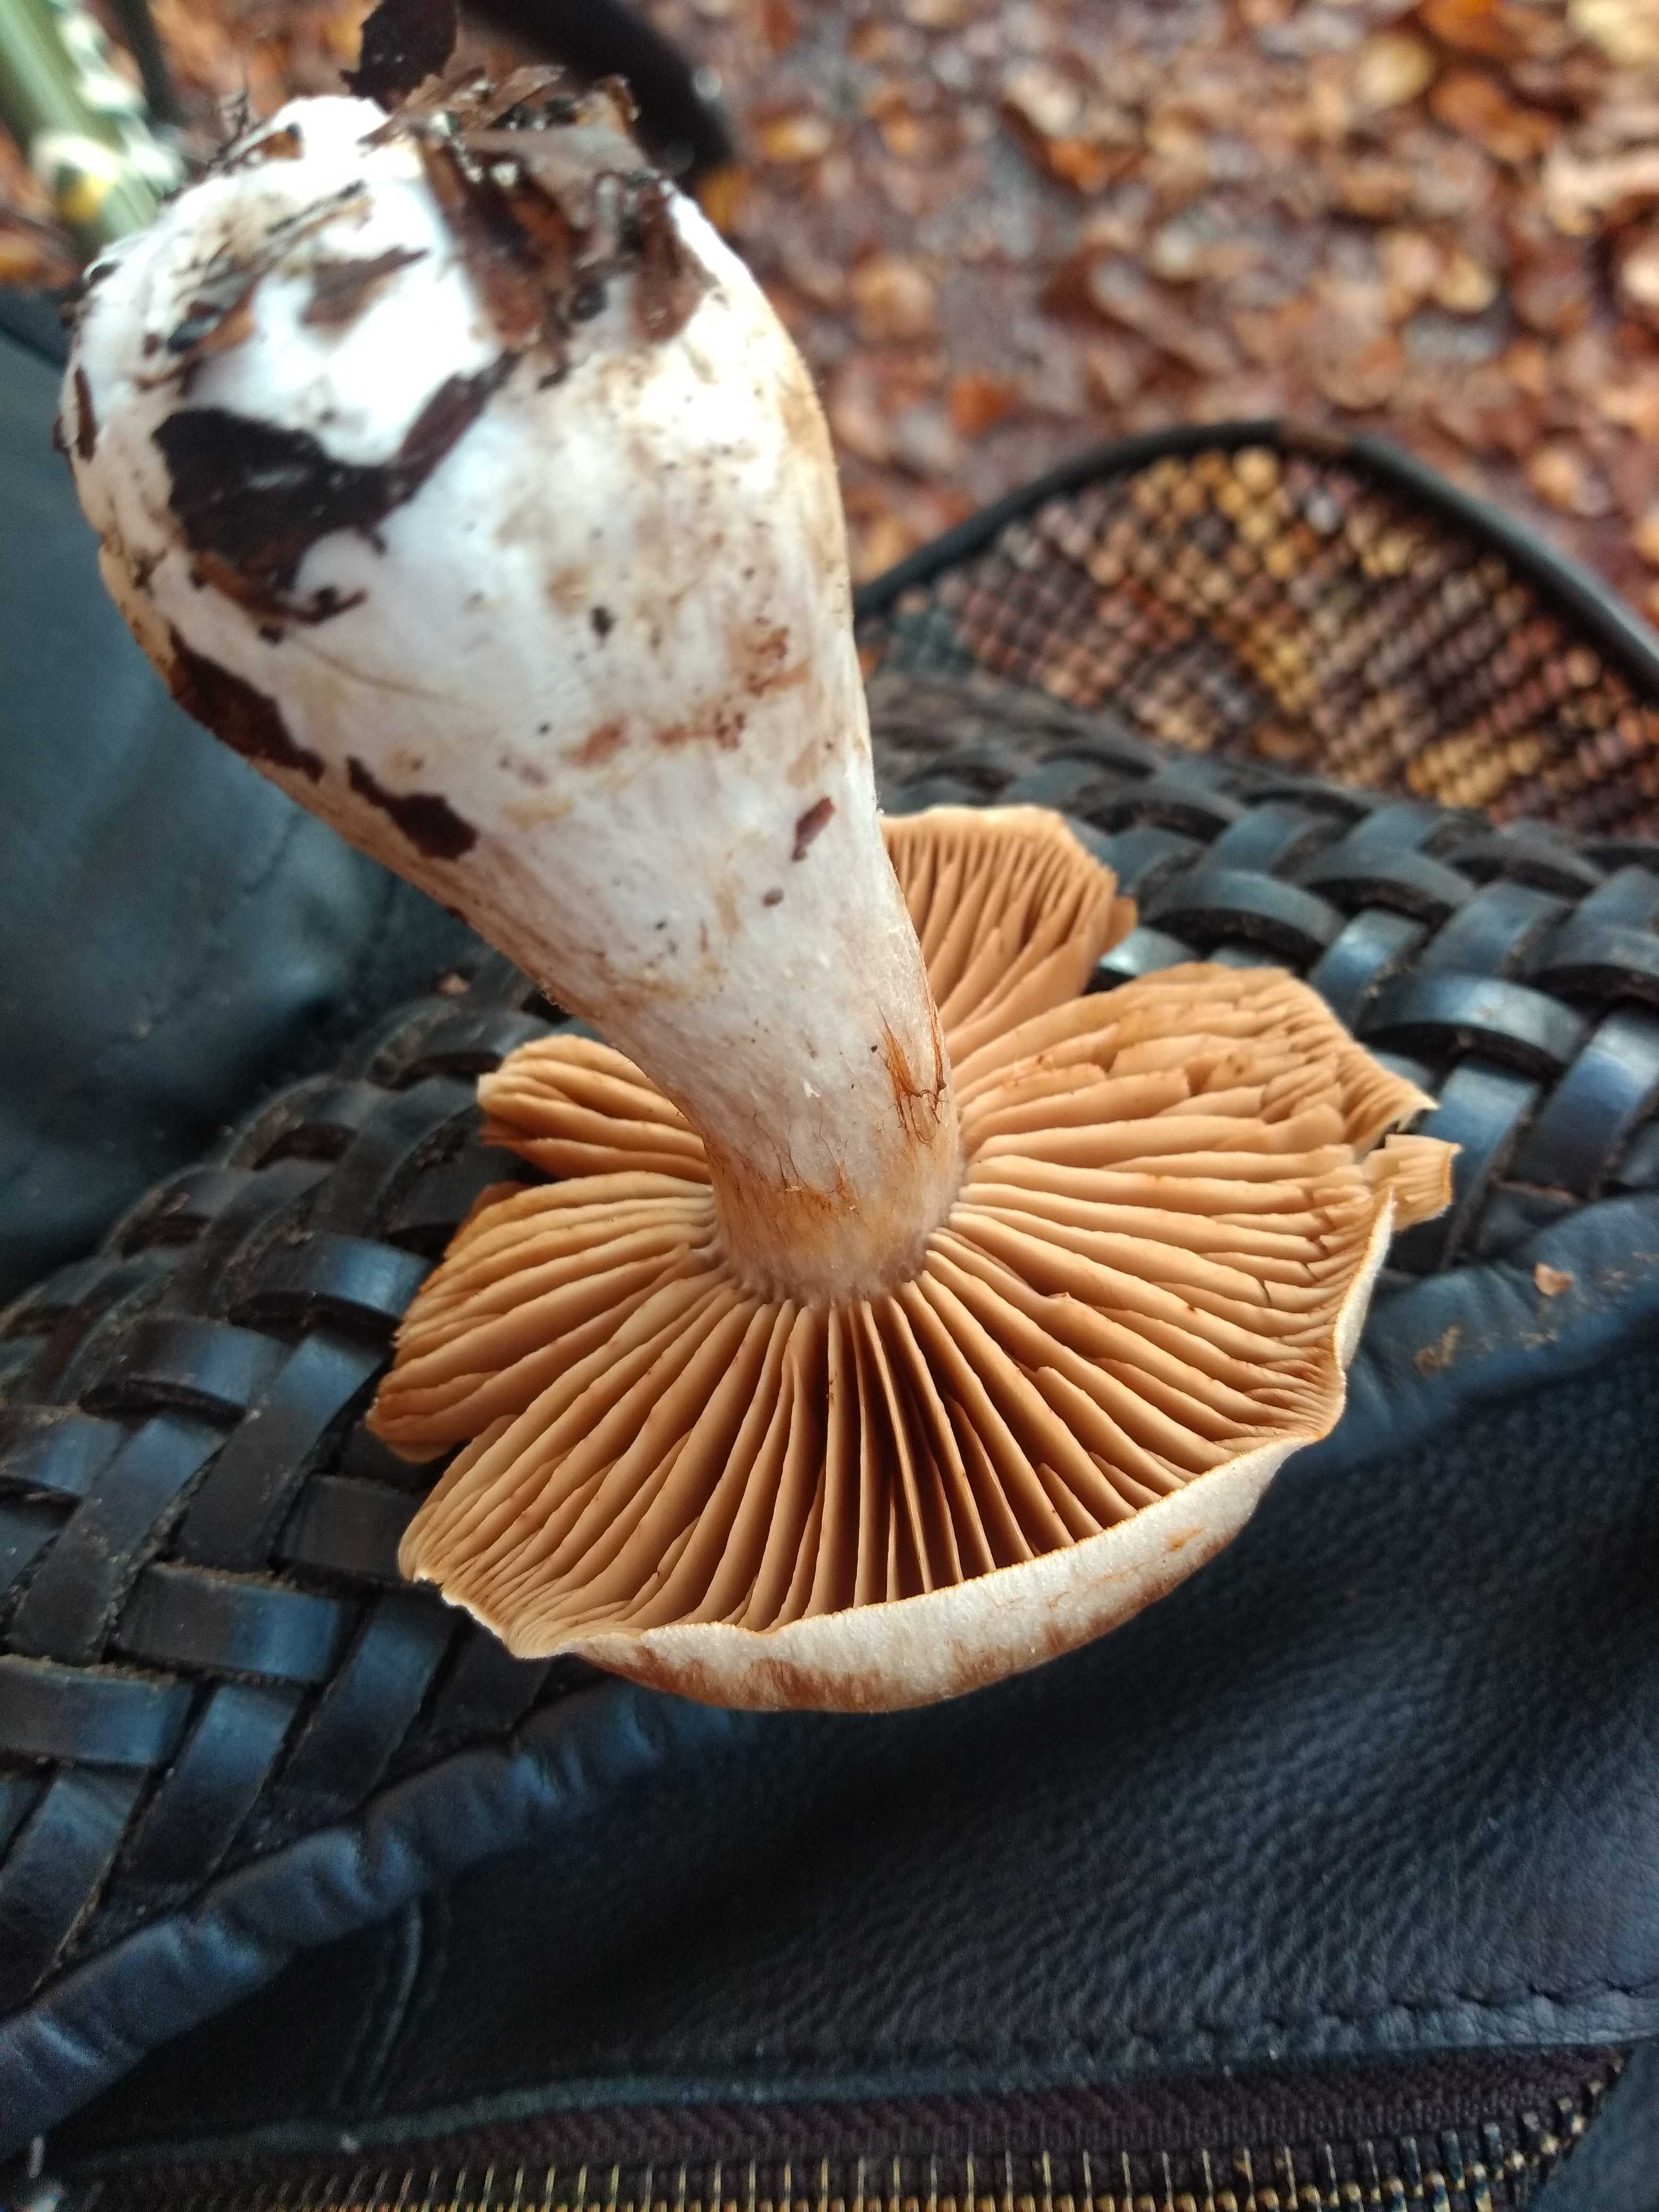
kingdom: Fungi
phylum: Basidiomycota
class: Agaricomycetes
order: Agaricales
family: Cortinariaceae
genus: Cortinarius
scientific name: Cortinarius
